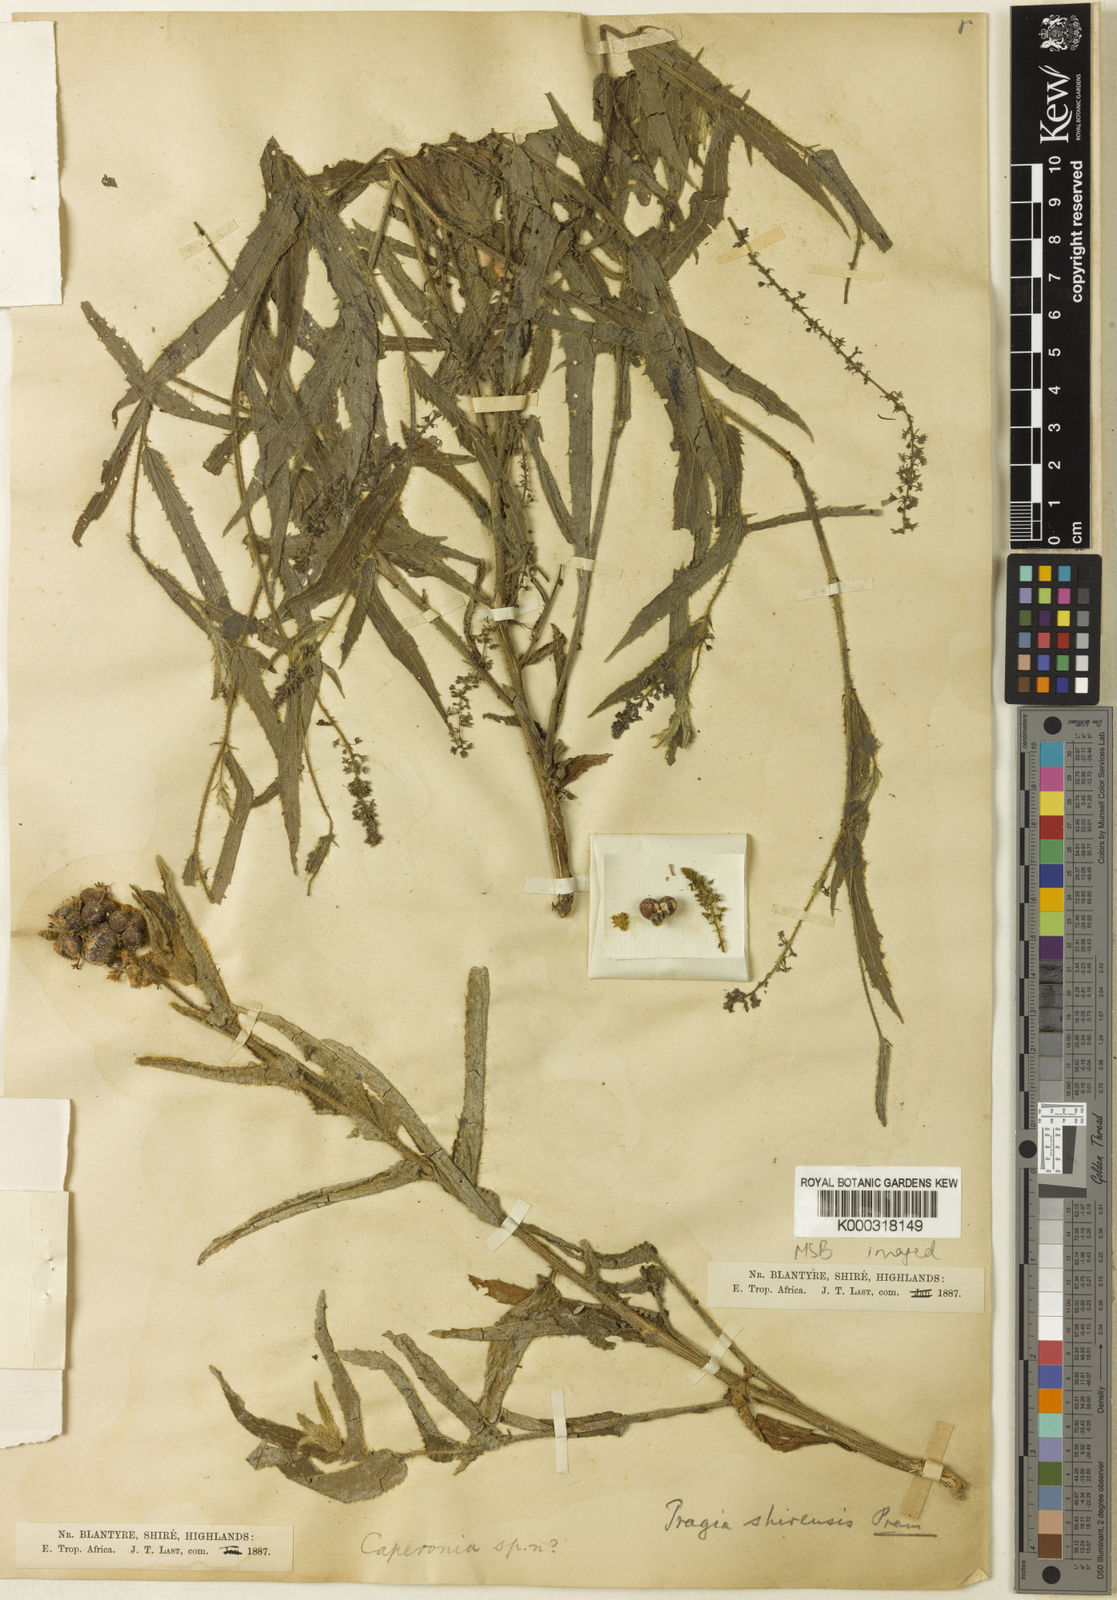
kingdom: Plantae
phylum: Tracheophyta
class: Magnoliopsida
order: Malpighiales
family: Euphorbiaceae
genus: Tragia
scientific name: Tragia shirensis
